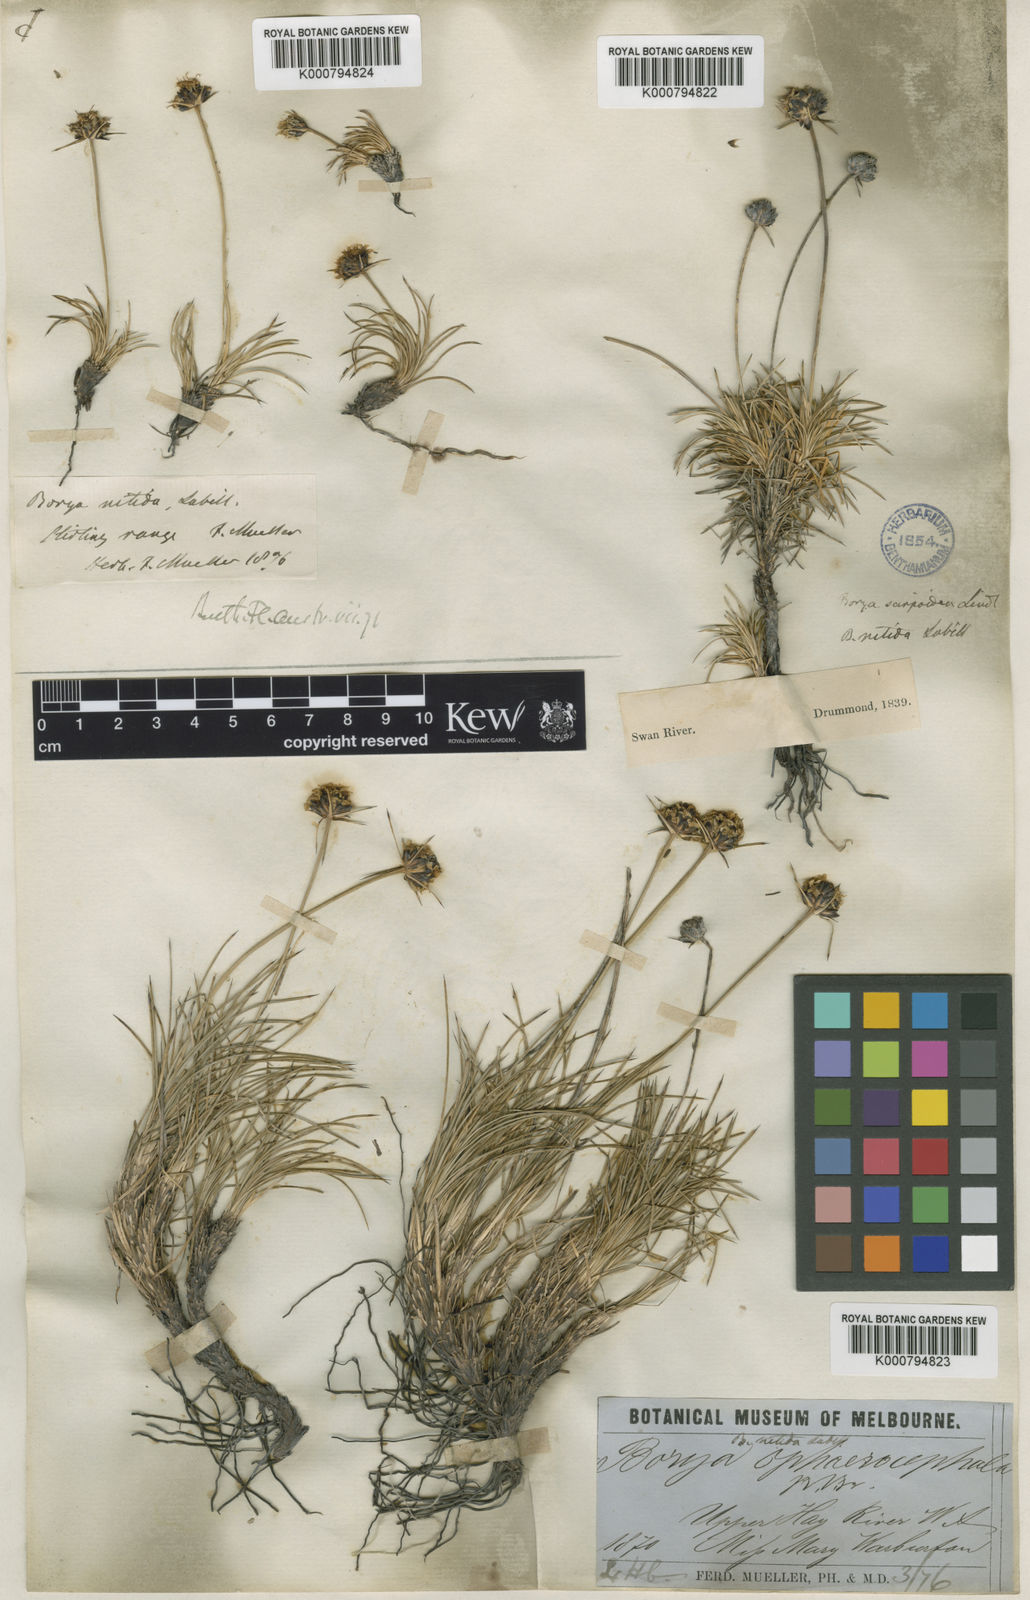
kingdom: Plantae
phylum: Tracheophyta
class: Liliopsida
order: Asparagales
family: Boryaceae
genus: Borya
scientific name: Borya nitida
